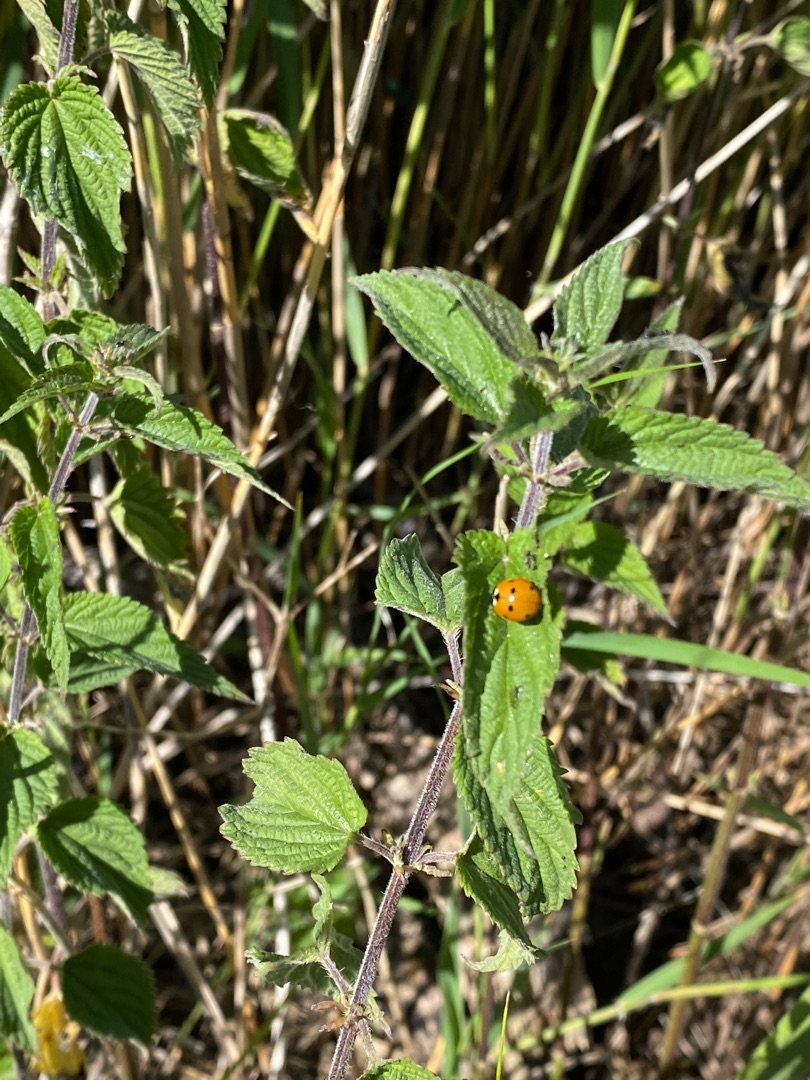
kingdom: Plantae
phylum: Tracheophyta
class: Magnoliopsida
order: Rosales
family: Urticaceae
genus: Urtica
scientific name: Urtica dioica
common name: Stor nælde
